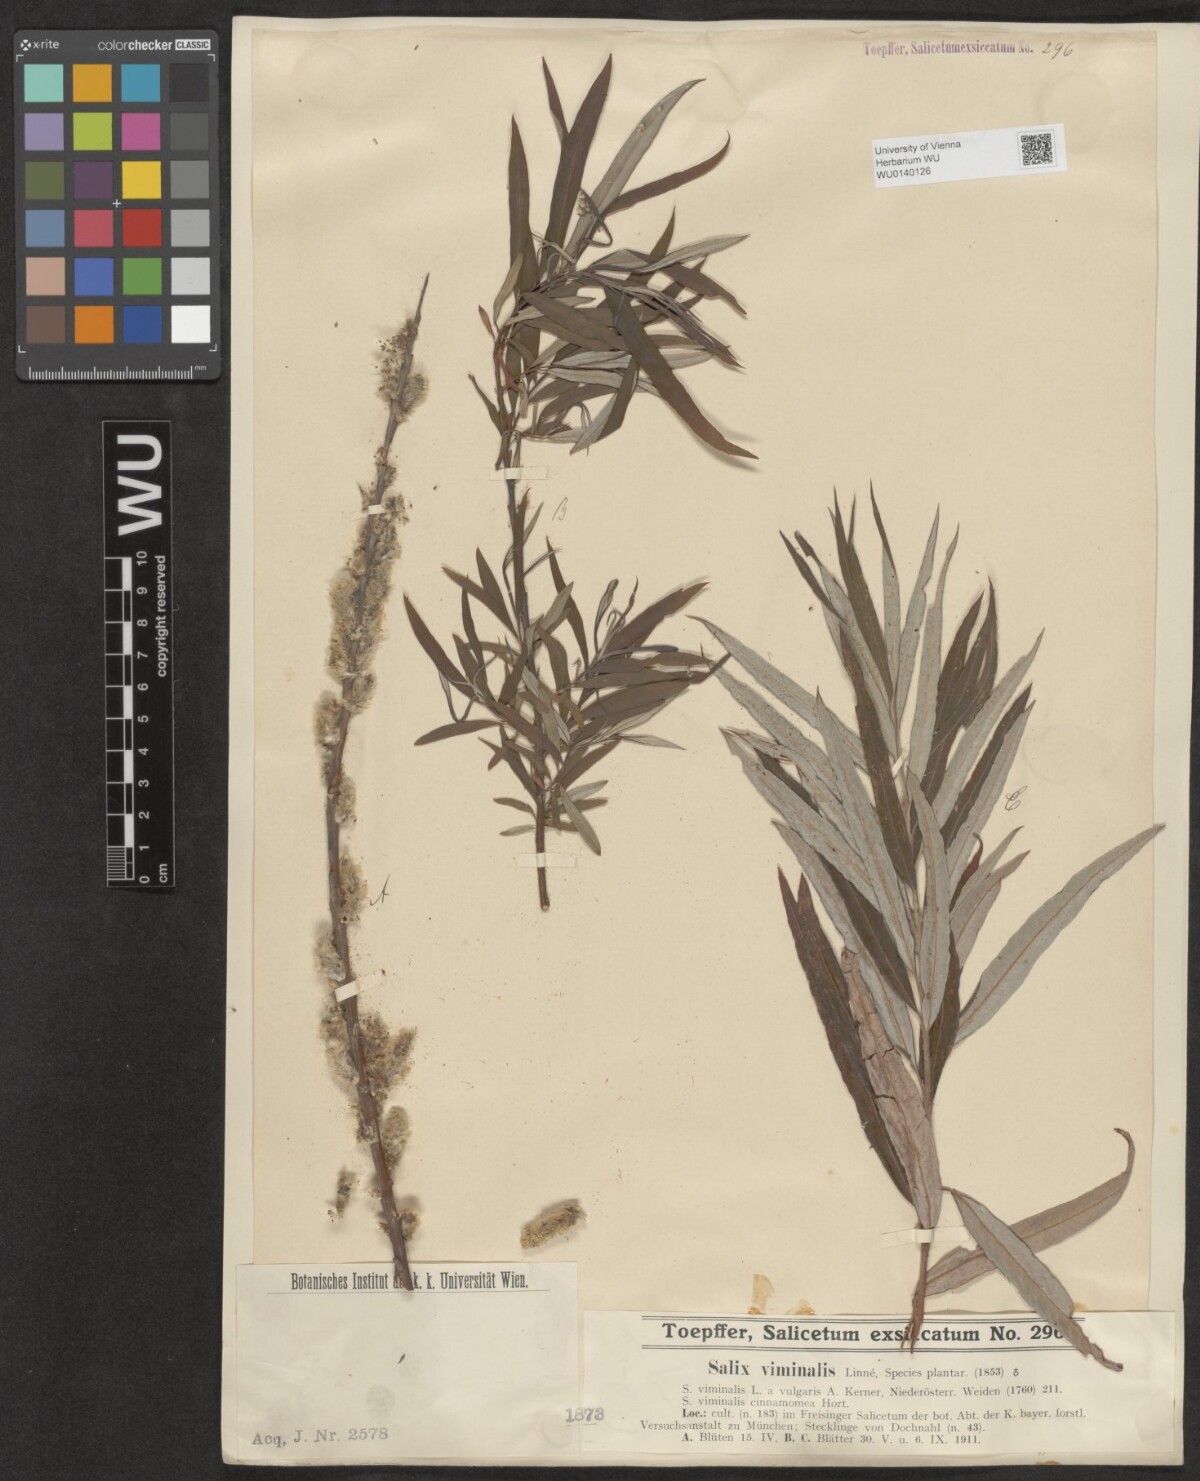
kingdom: Plantae
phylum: Tracheophyta
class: Magnoliopsida
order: Malpighiales
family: Salicaceae
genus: Salix
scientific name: Salix viminalis
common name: Osier
